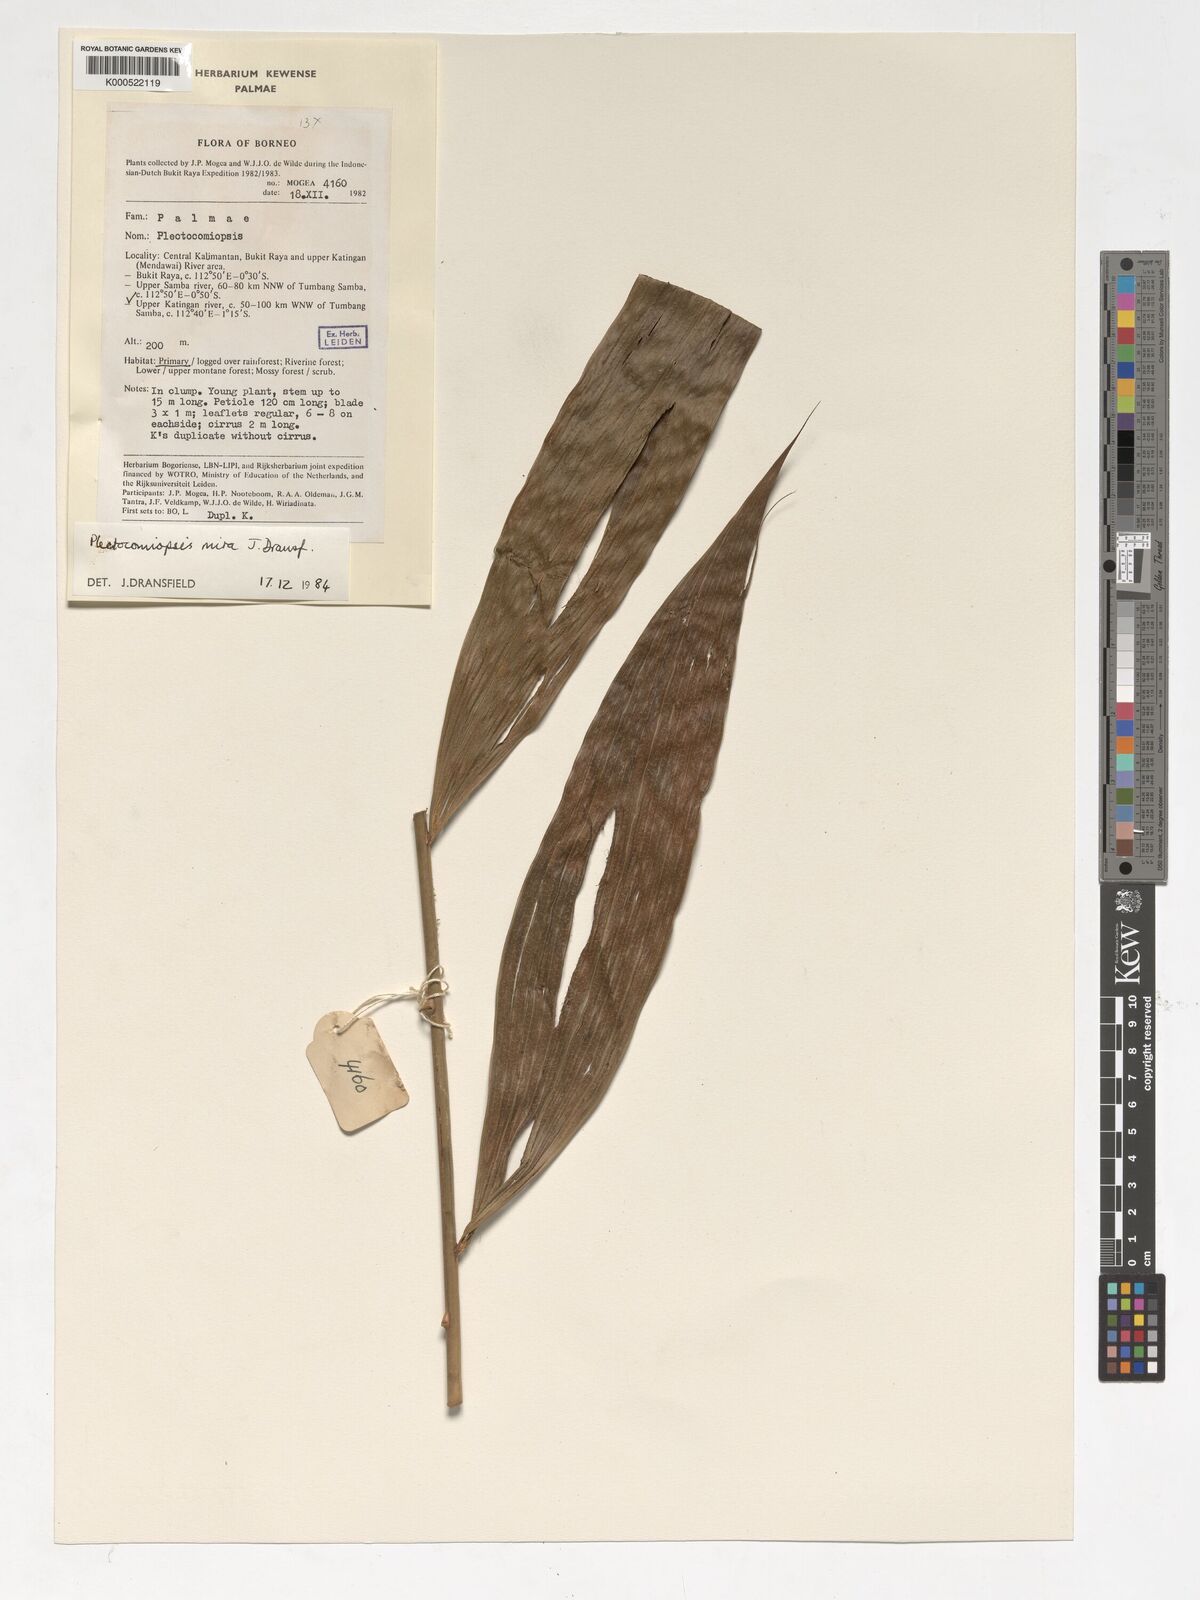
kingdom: Plantae
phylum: Tracheophyta
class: Liliopsida
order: Arecales
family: Arecaceae
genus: Plectocomiopsis
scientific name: Plectocomiopsis mira
